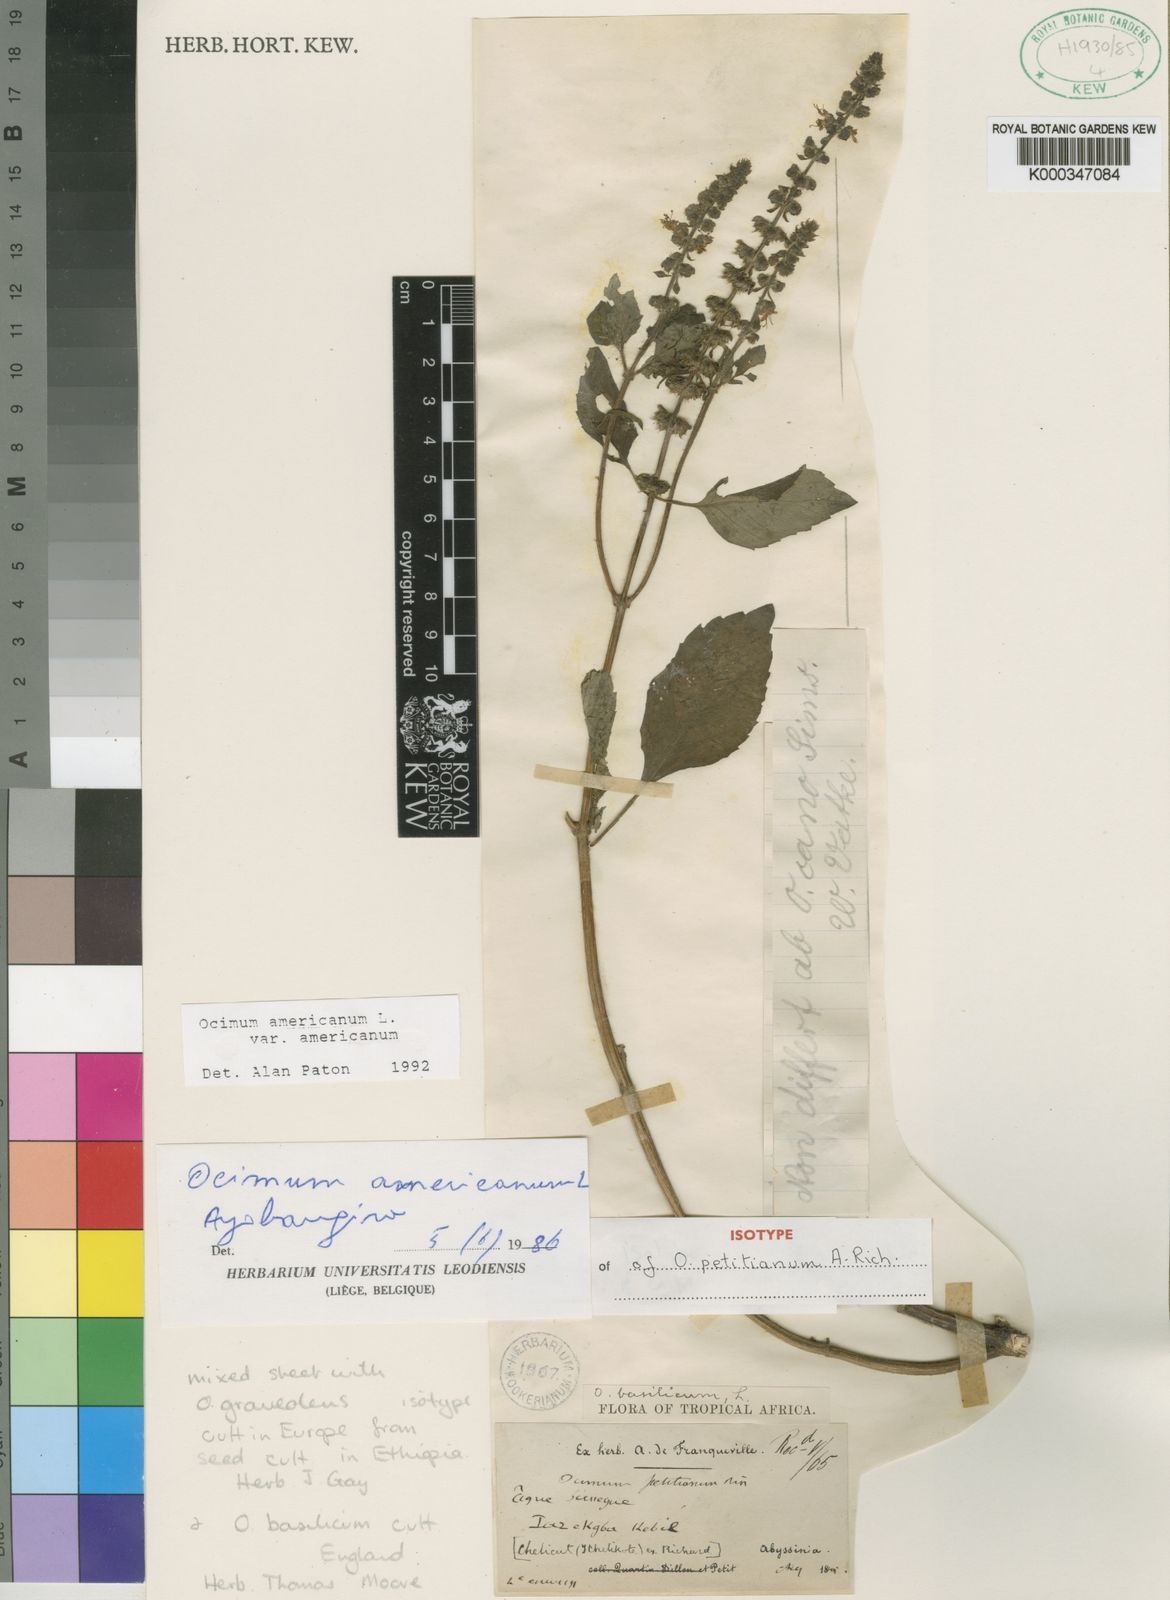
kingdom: Plantae
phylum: Tracheophyta
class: Magnoliopsida
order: Lamiales
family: Lamiaceae
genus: Ocimum
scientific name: Ocimum africanum
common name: Hoary basil
